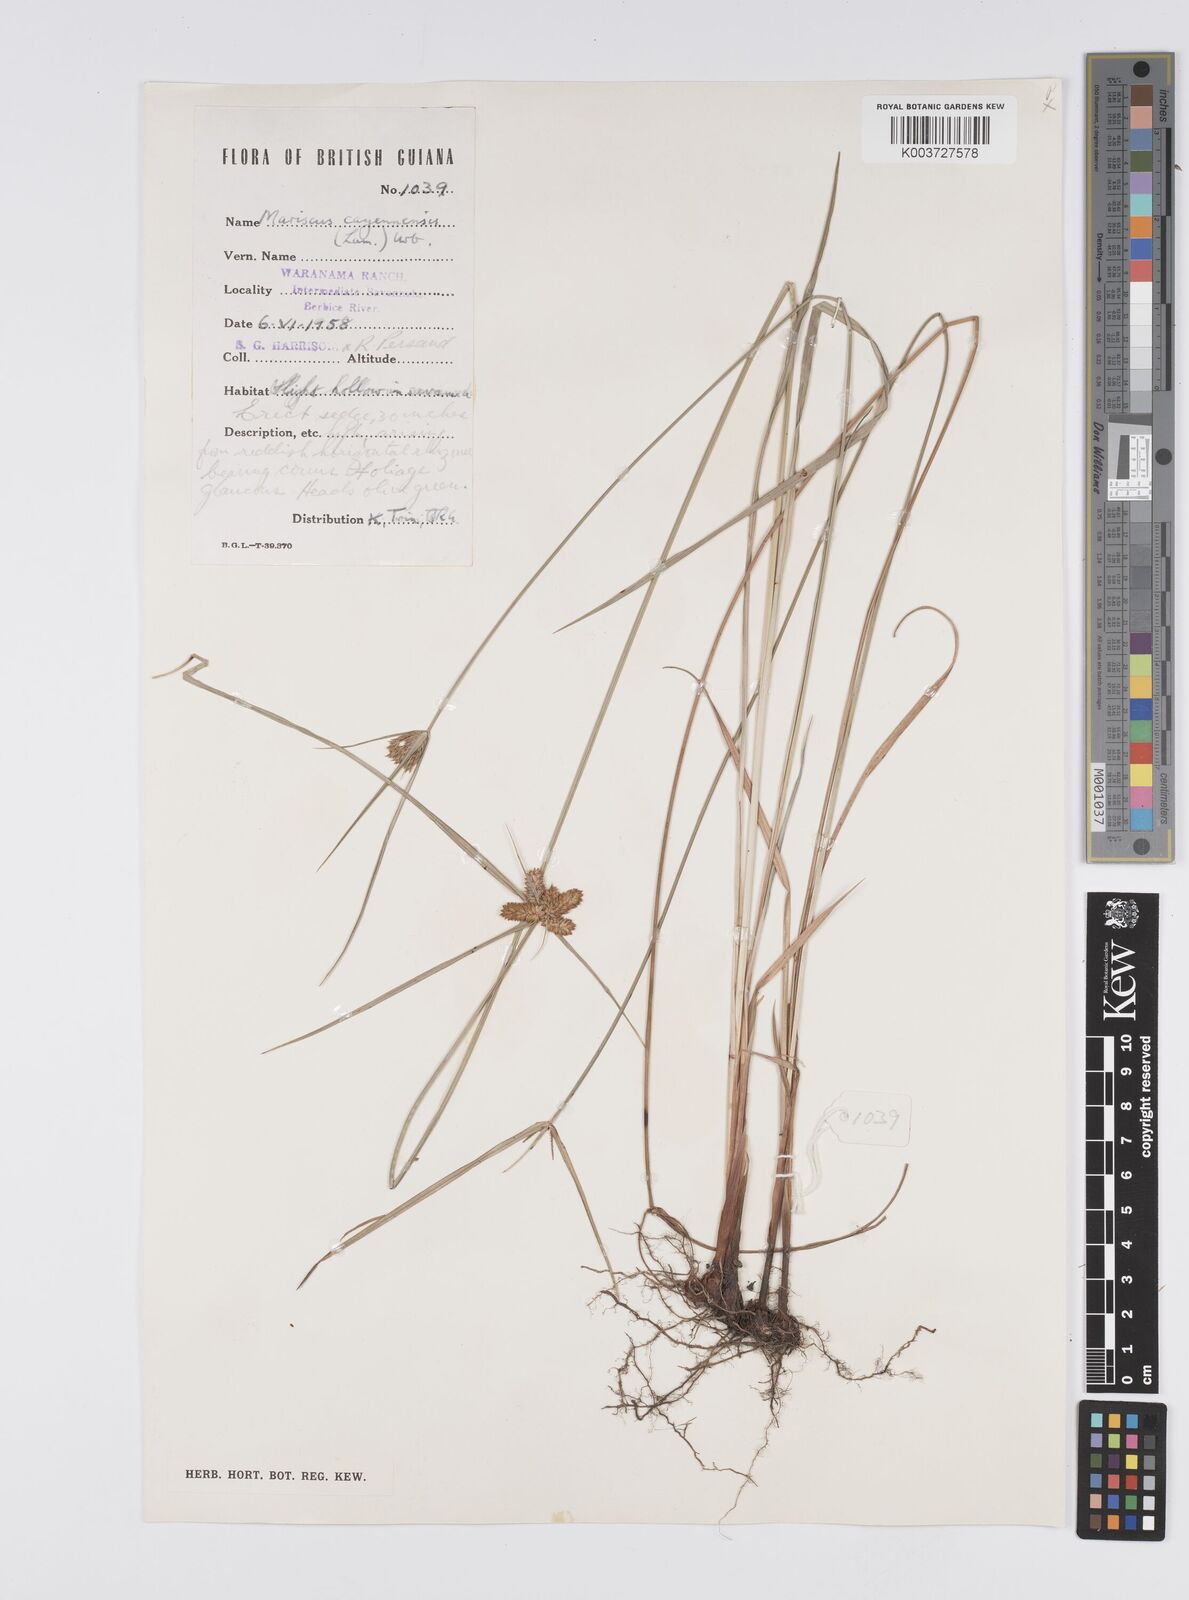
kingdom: Plantae
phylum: Tracheophyta
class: Liliopsida
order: Poales
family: Cyperaceae
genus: Cyperus
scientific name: Cyperus aggregatus
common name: Inflatedscale flatsedge
